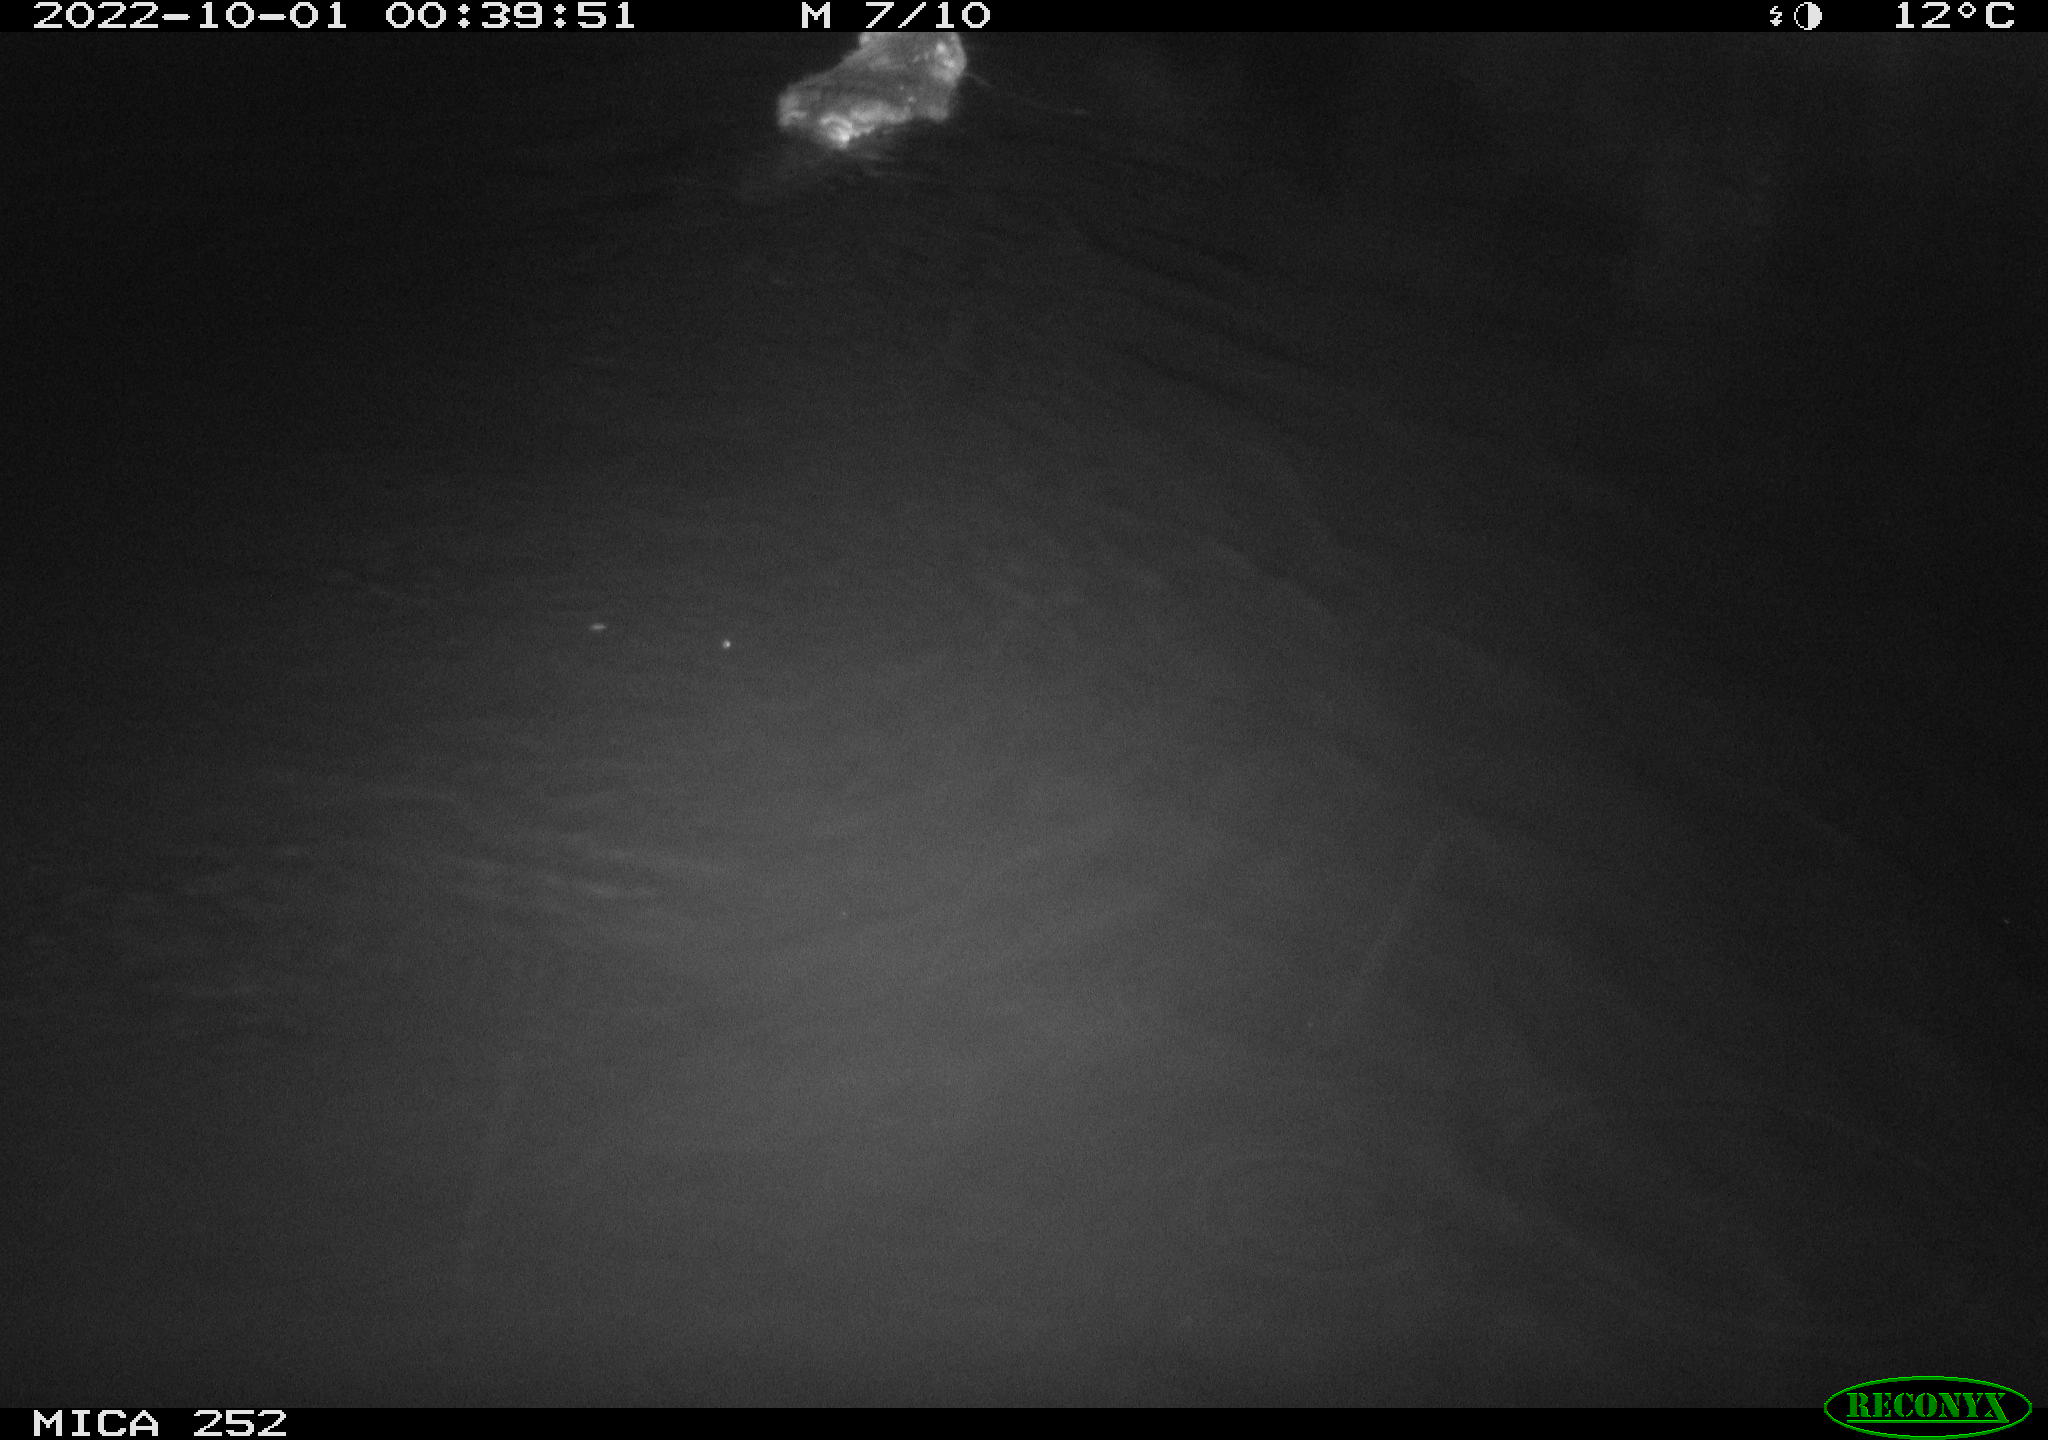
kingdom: Animalia
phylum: Chordata
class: Mammalia
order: Rodentia
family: Castoridae
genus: Castor
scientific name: Castor fiber
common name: Eurasian beaver
